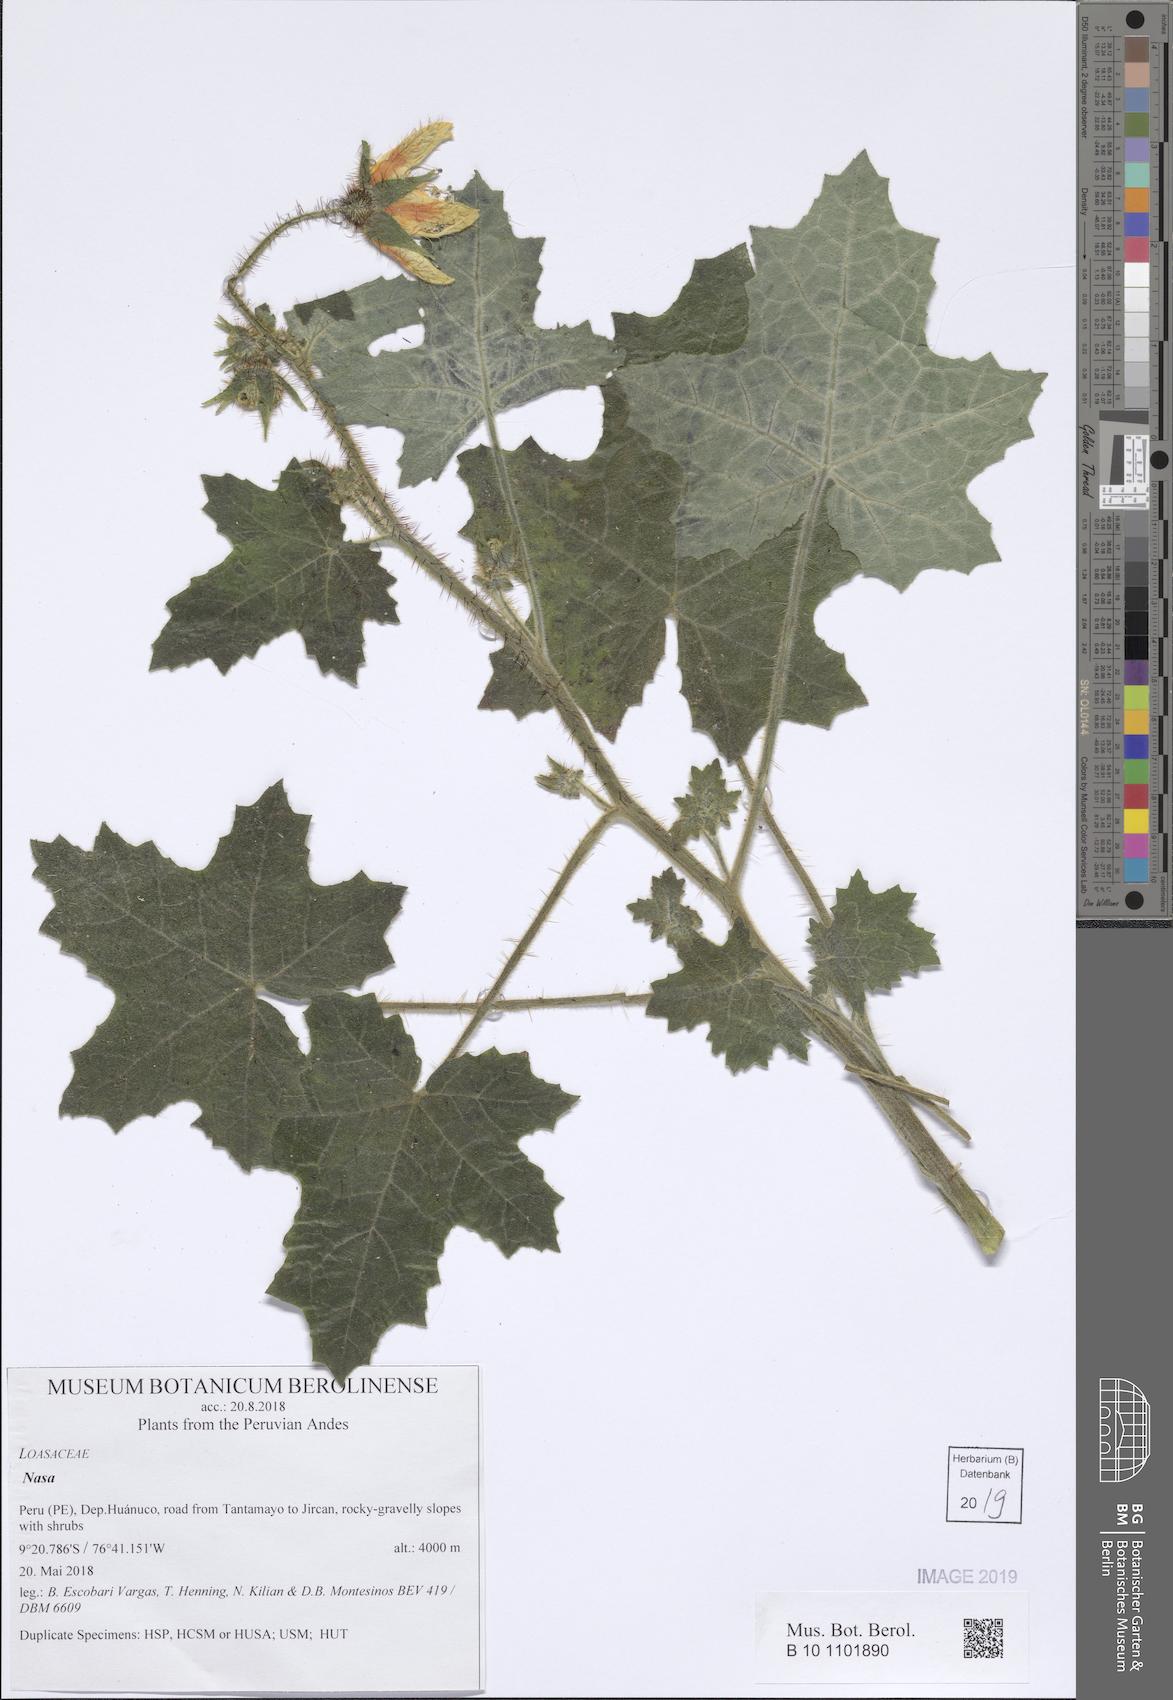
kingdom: Plantae
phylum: Tracheophyta
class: Magnoliopsida
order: Cornales
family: Loasaceae
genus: Nasa
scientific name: Nasa ranunculifolia
